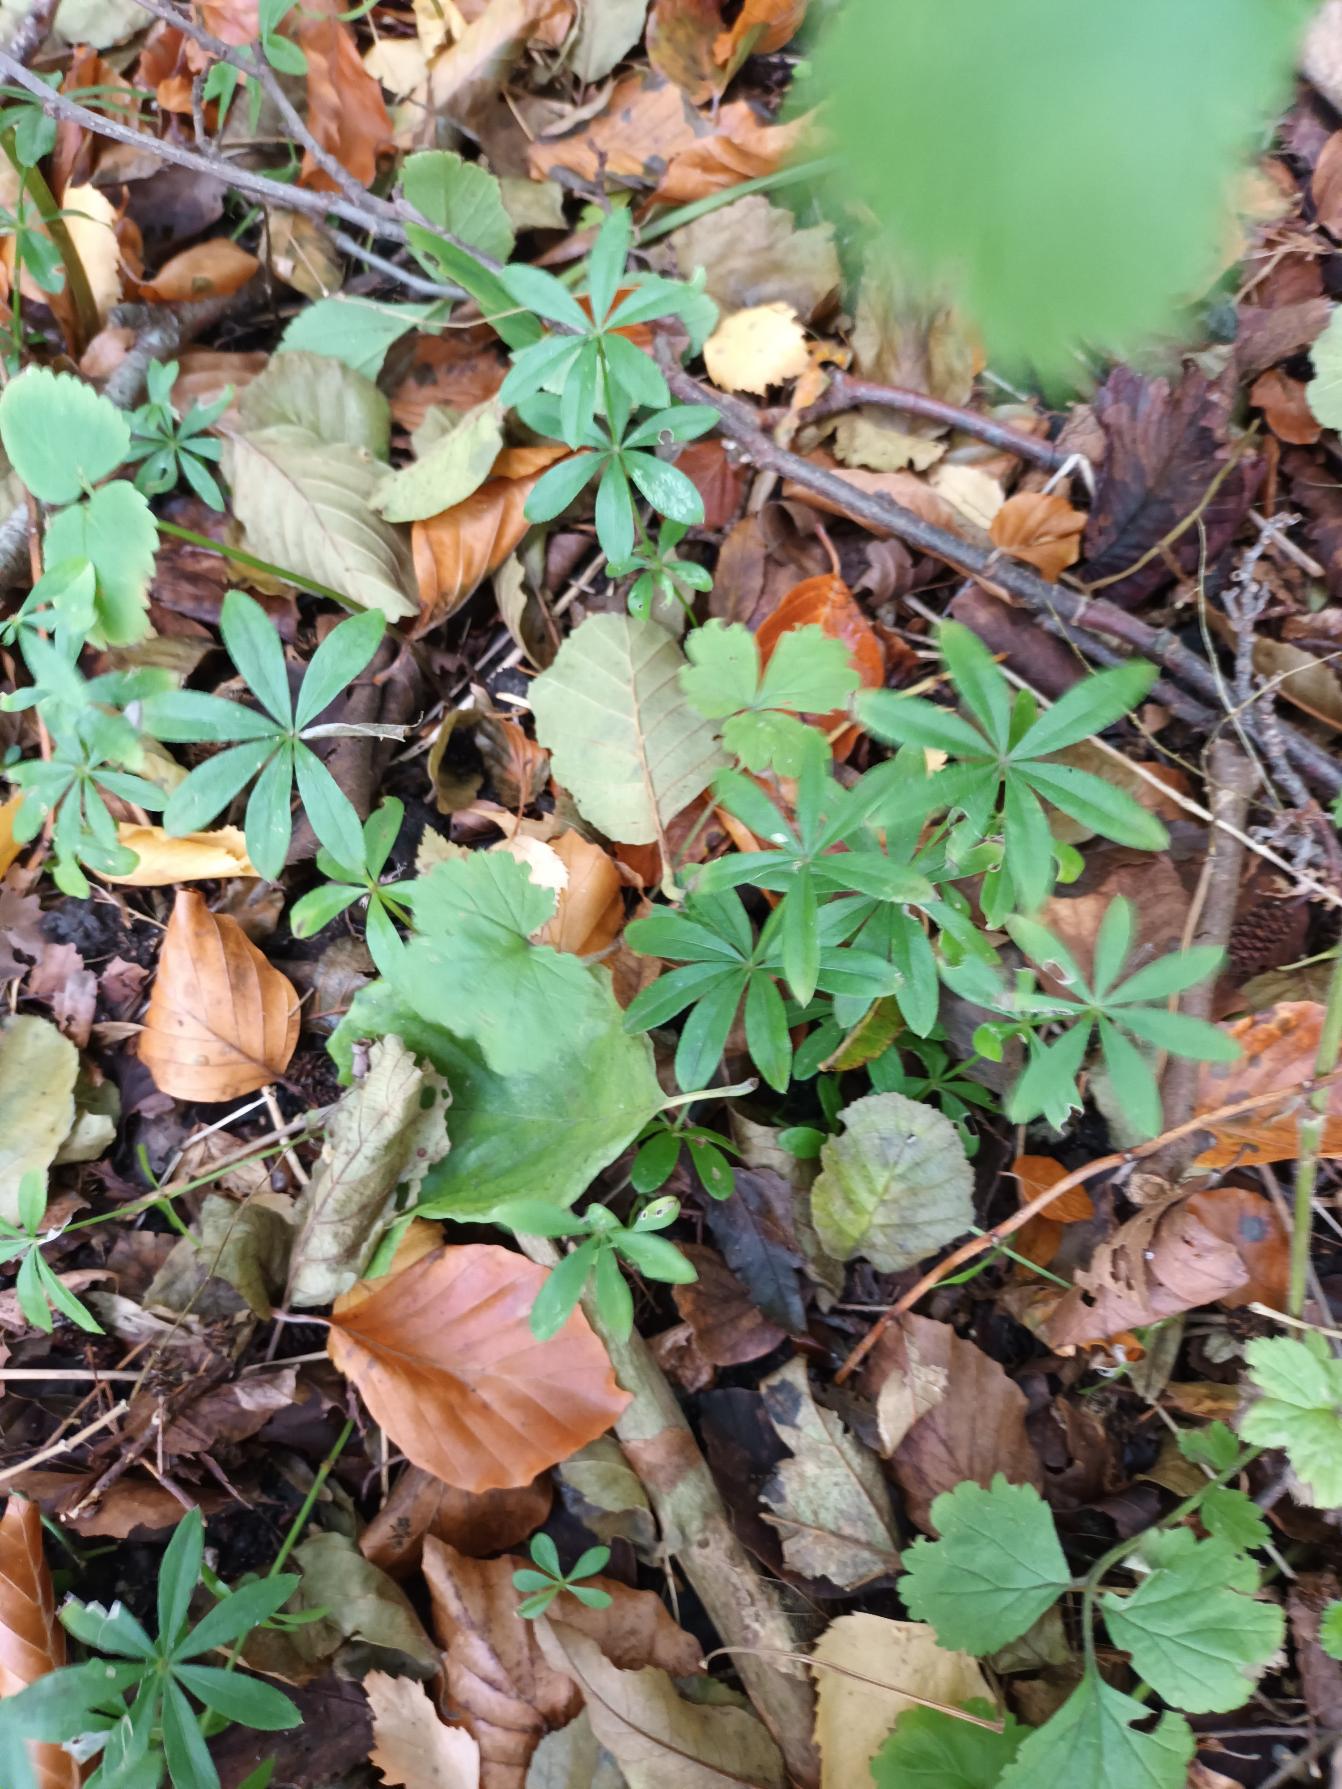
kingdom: Plantae
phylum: Tracheophyta
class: Magnoliopsida
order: Gentianales
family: Rubiaceae
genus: Galium
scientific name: Galium odoratum
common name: Skovmærke
